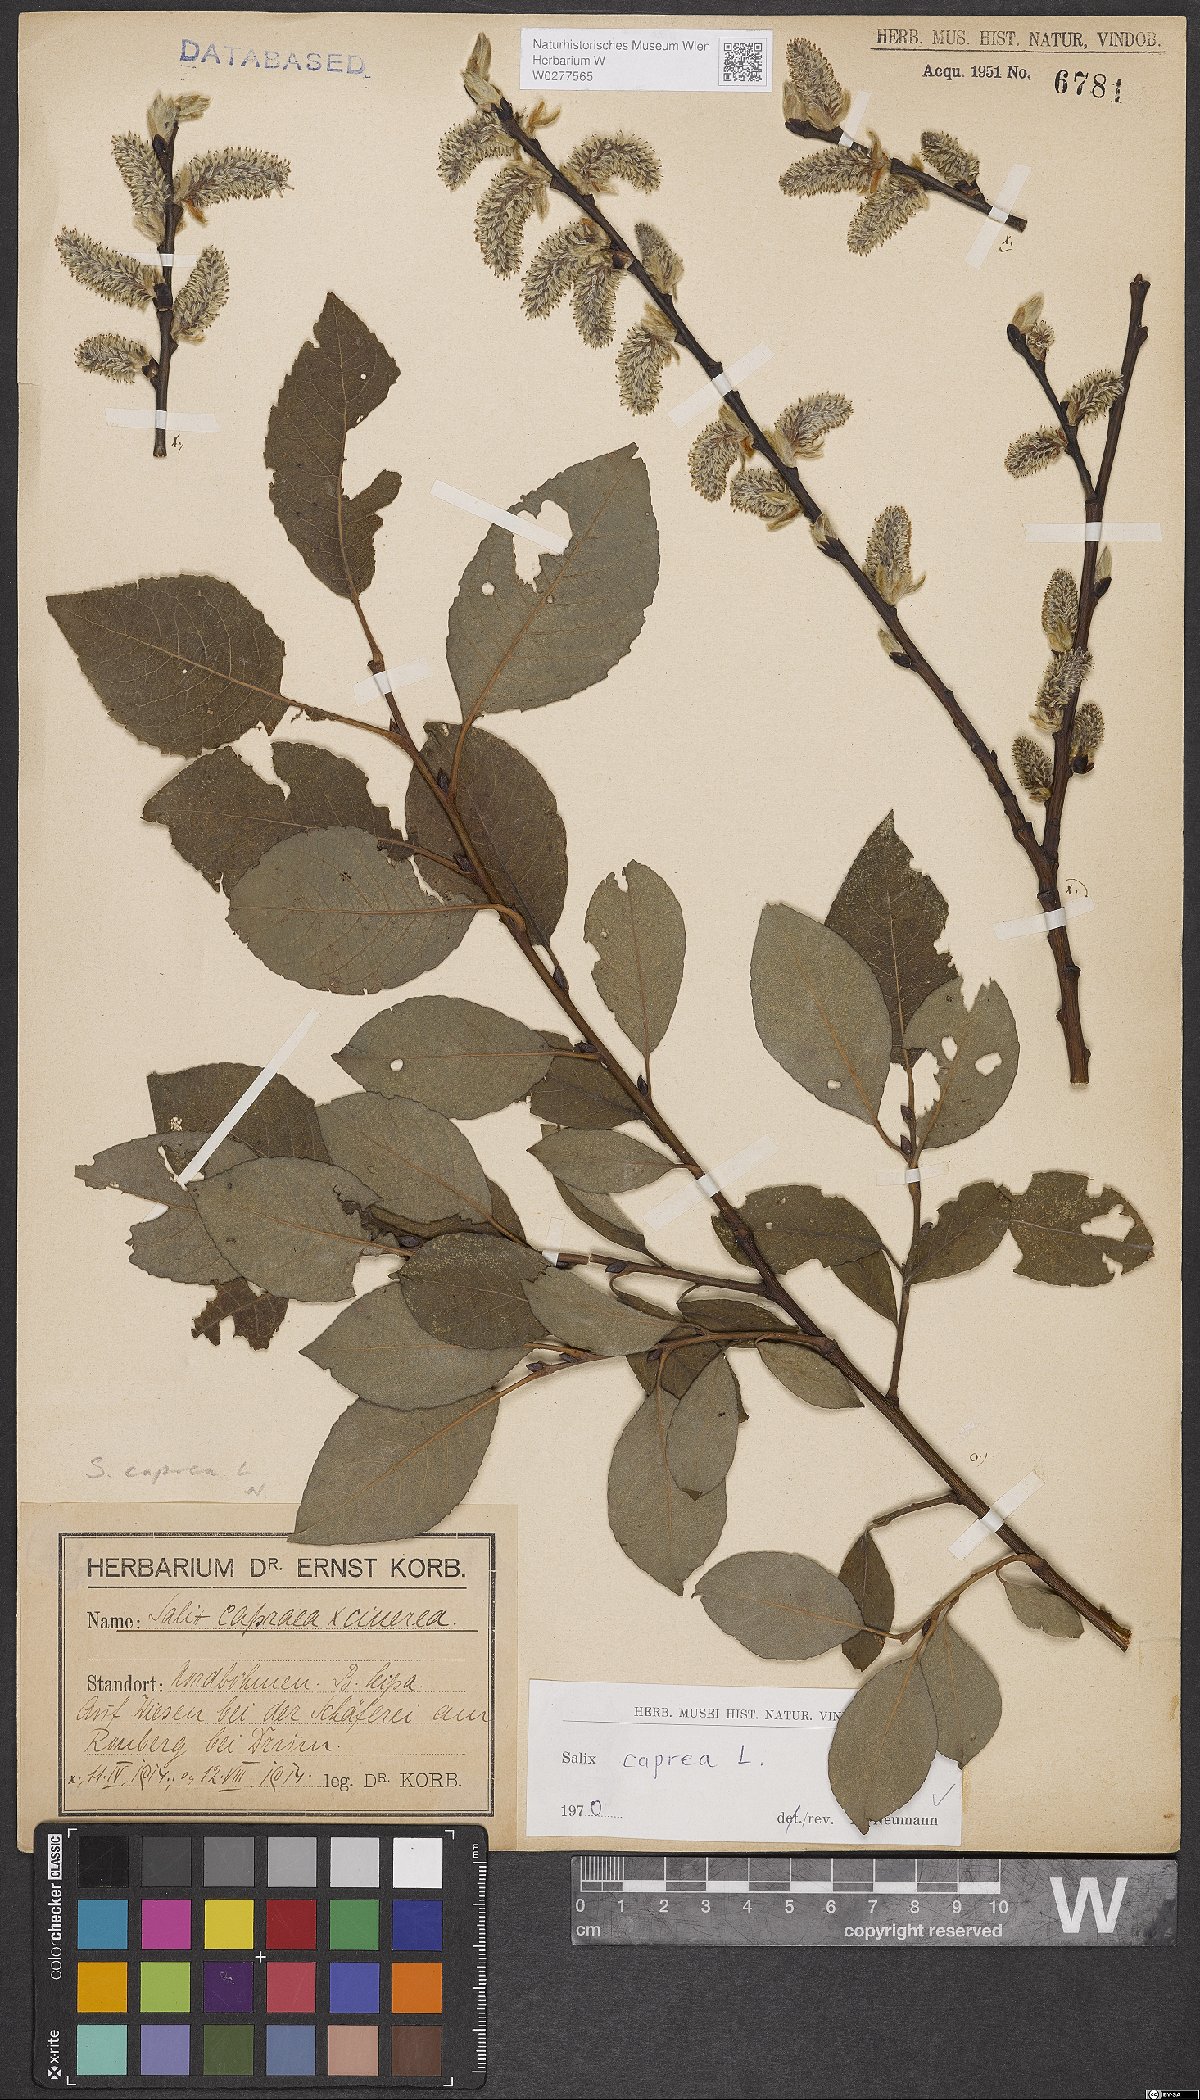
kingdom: Plantae
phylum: Tracheophyta
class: Magnoliopsida
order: Malpighiales
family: Salicaceae
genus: Salix
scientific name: Salix caprea
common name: Goat willow
